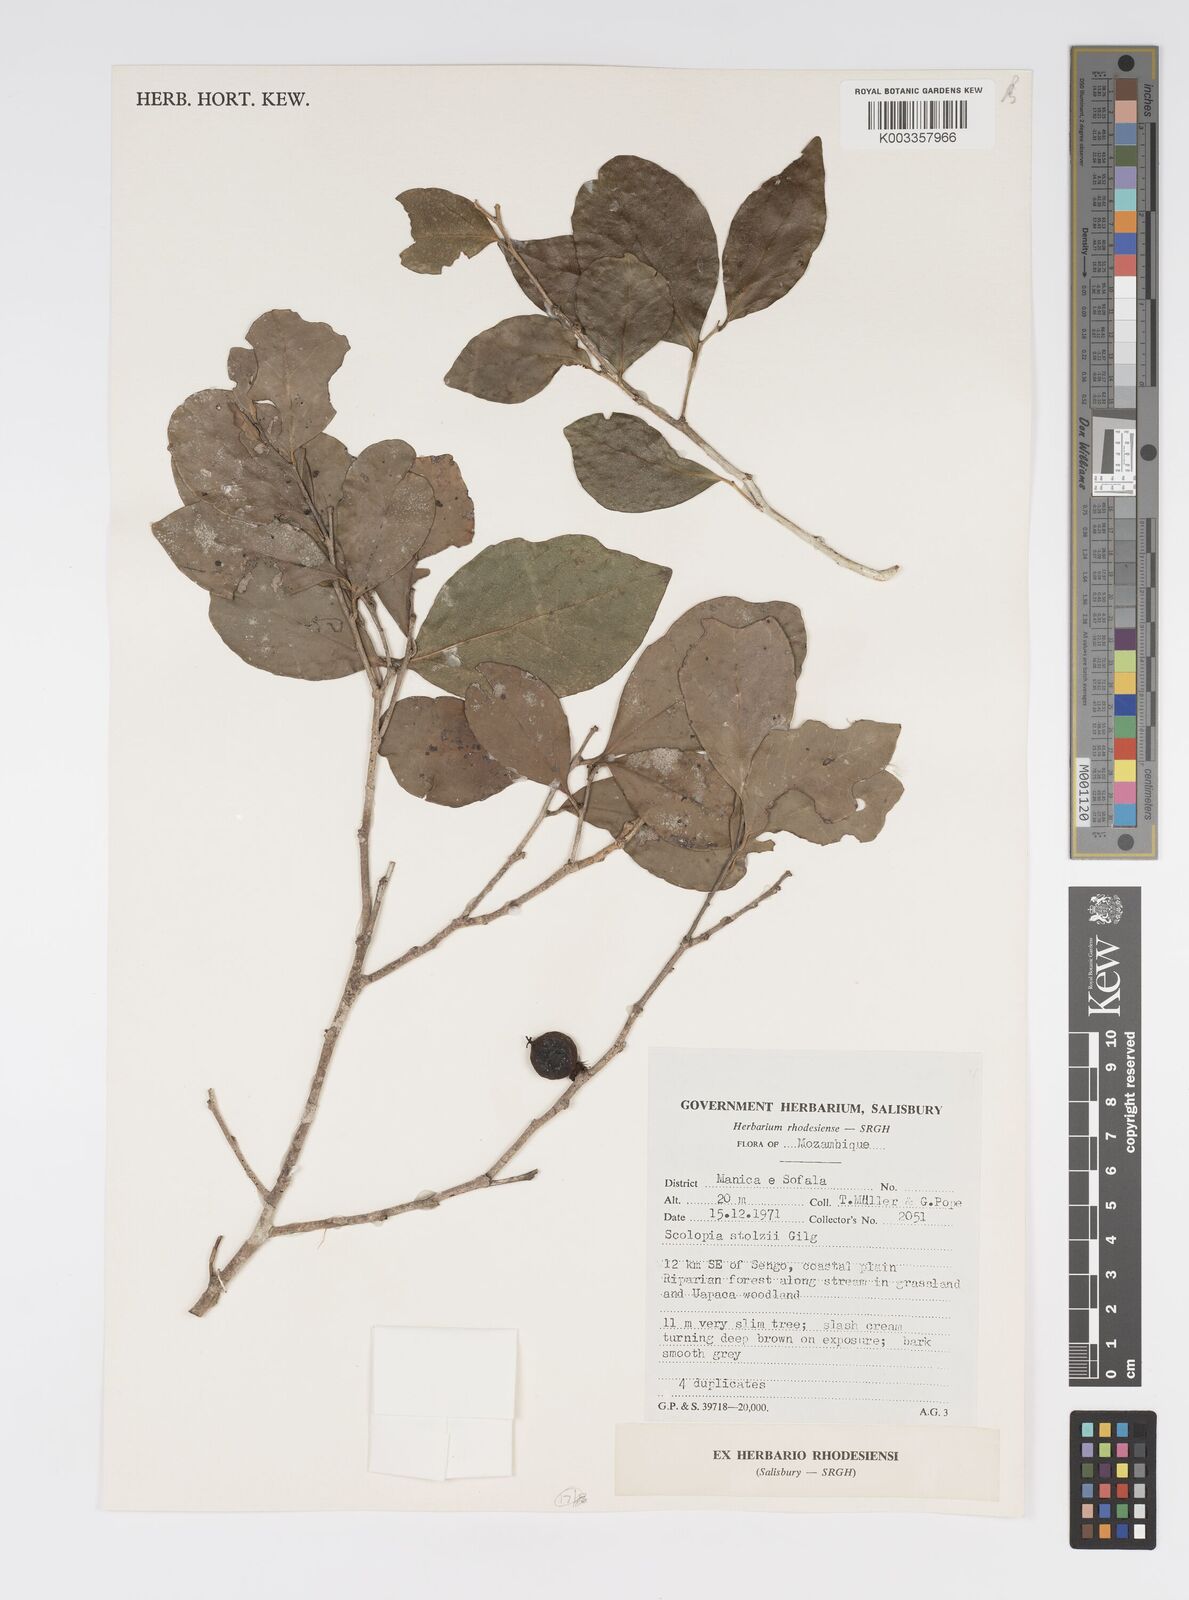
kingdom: Plantae
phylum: Tracheophyta
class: Magnoliopsida
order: Malpighiales
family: Salicaceae
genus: Scolopia
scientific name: Scolopia stolzii
